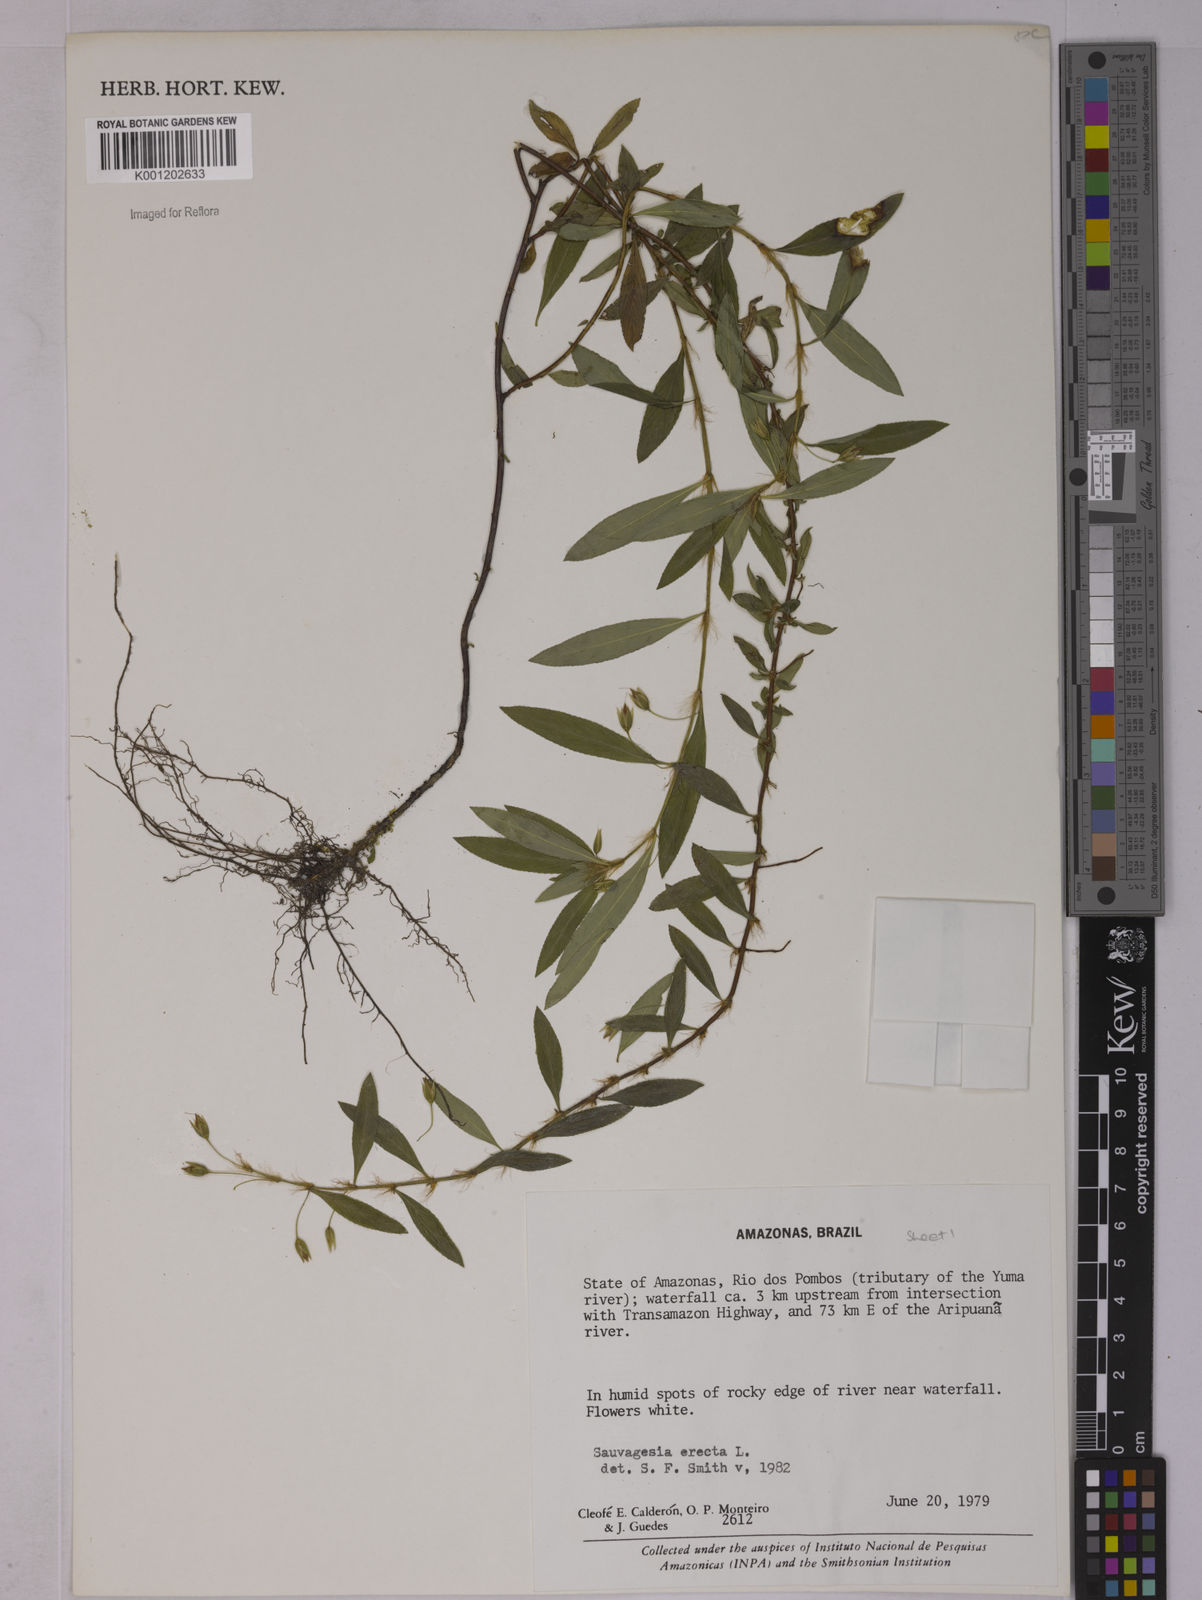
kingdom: Plantae
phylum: Tracheophyta
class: Magnoliopsida
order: Malpighiales
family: Ochnaceae
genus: Sauvagesia
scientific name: Sauvagesia erecta
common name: Creole tea
